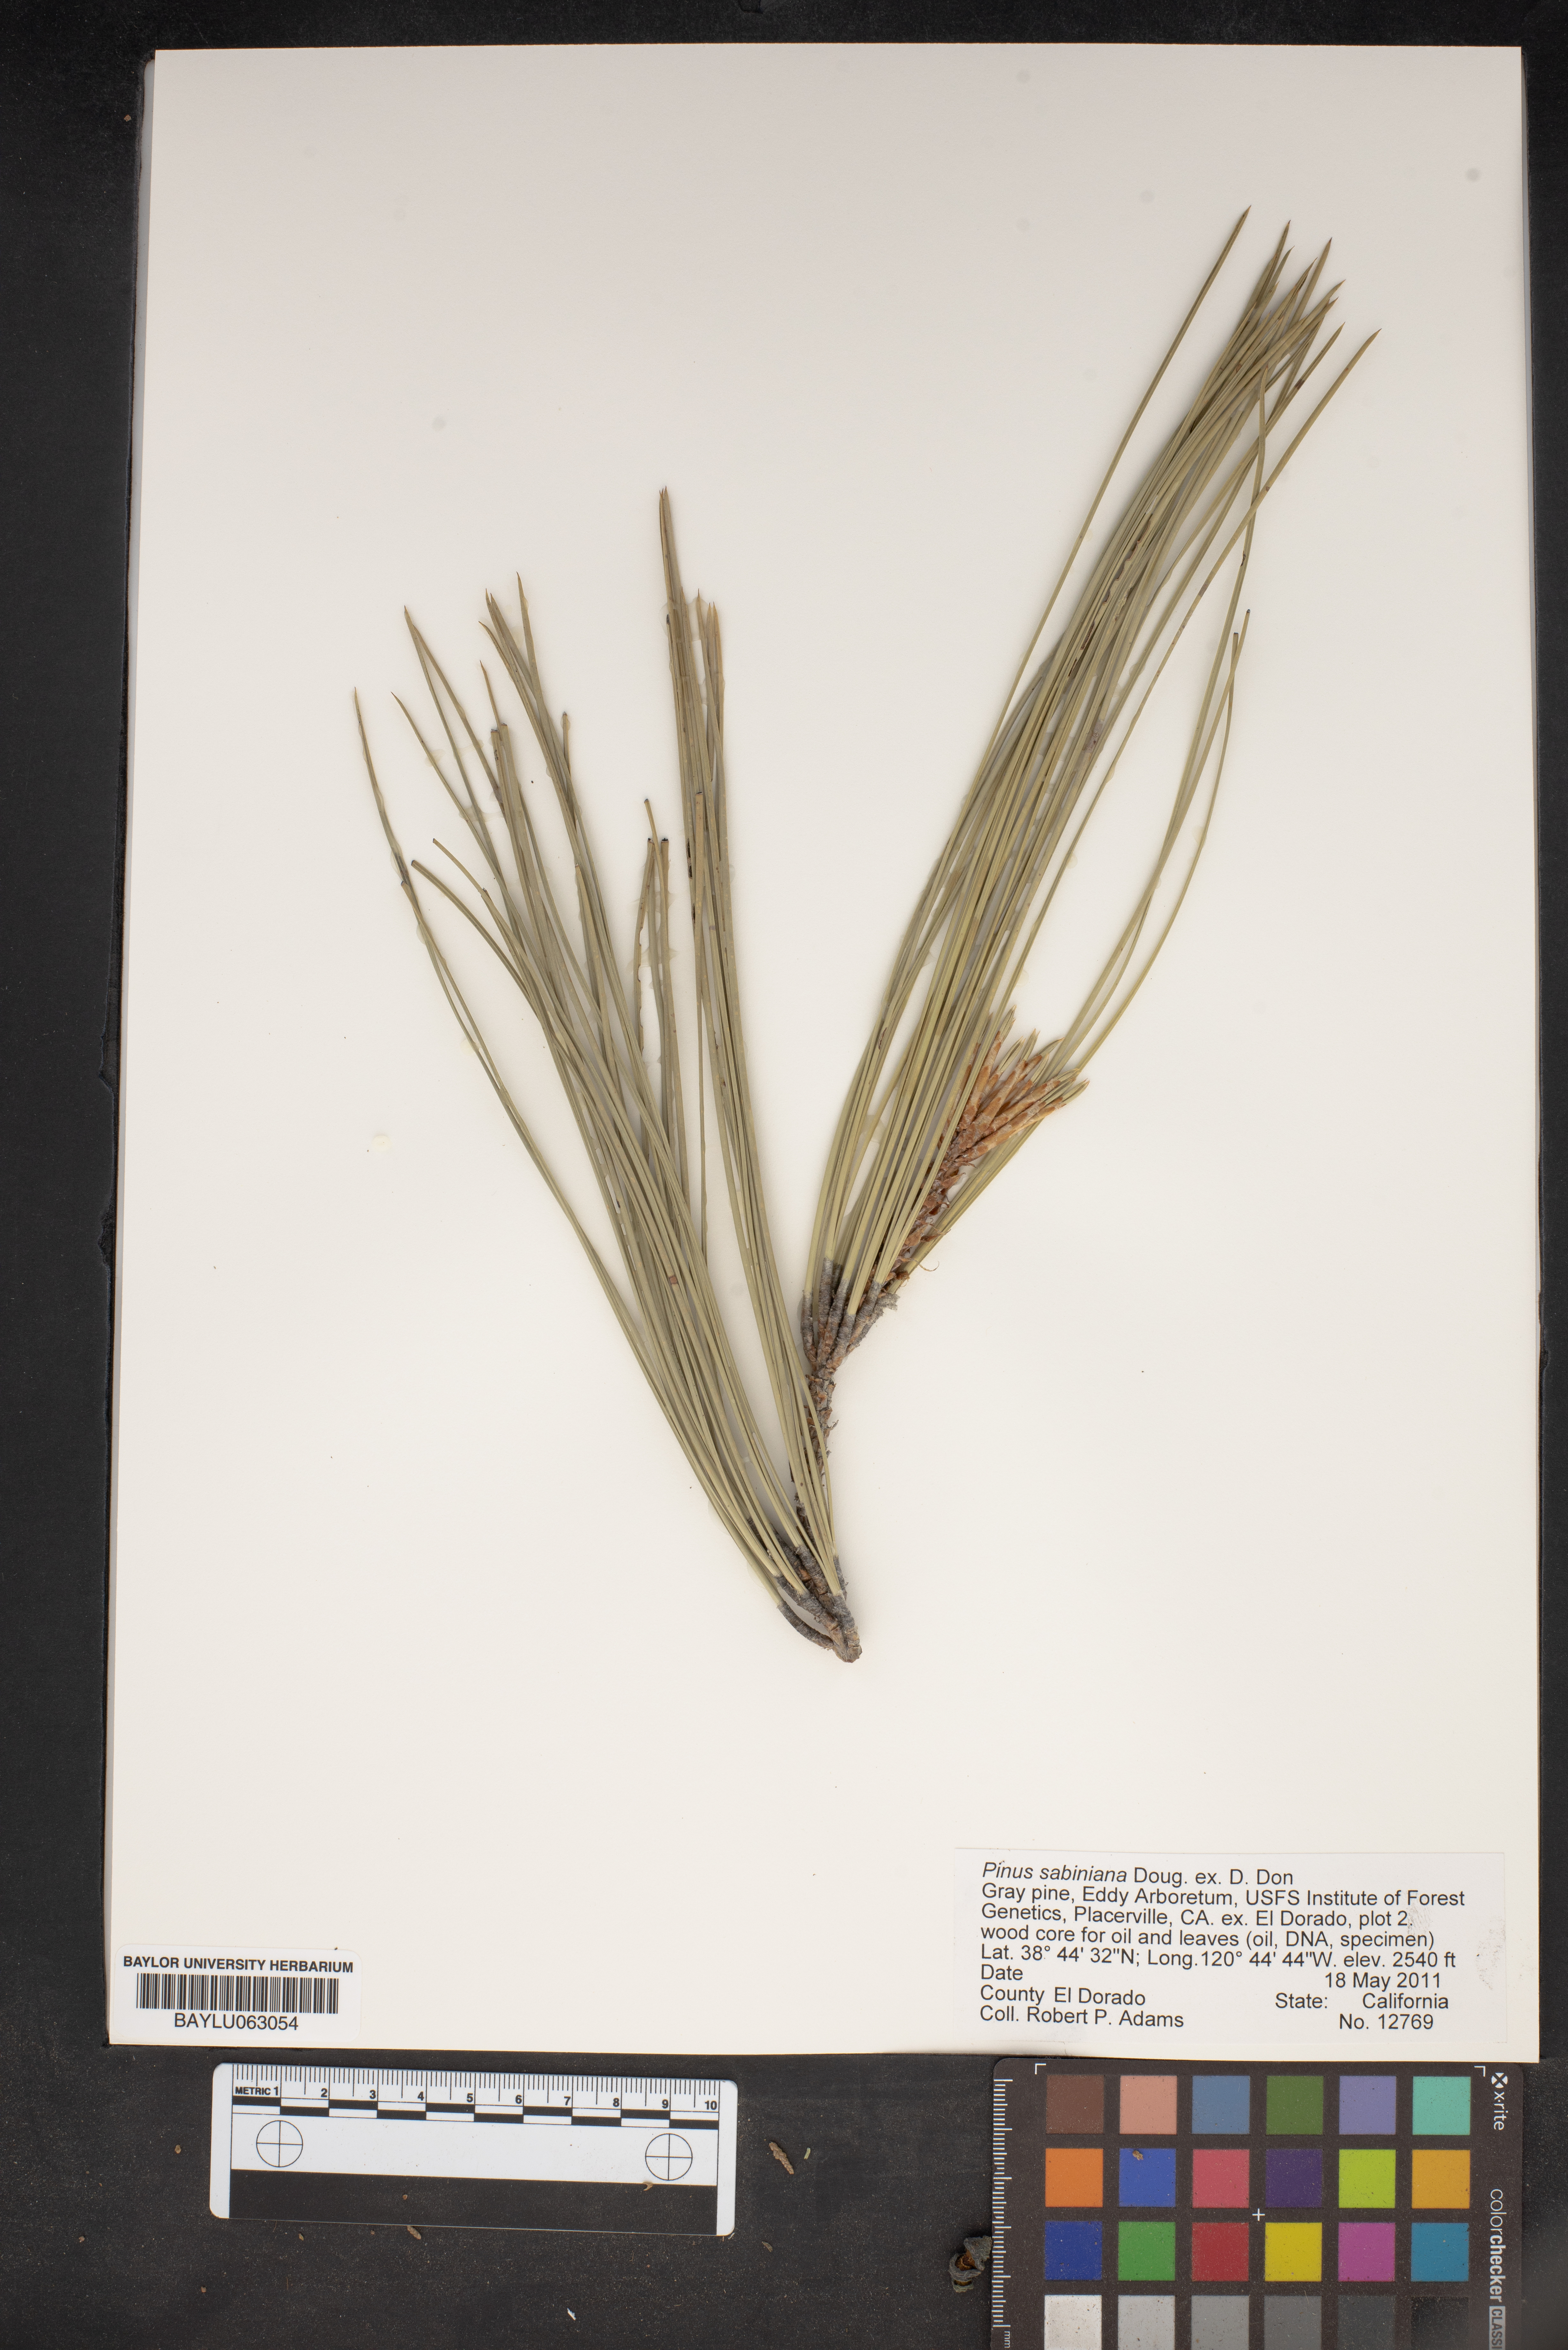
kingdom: Plantae
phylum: Tracheophyta
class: Pinopsida
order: Pinales
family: Pinaceae
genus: Pinus
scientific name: Pinus sabiniana
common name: Bull pine
